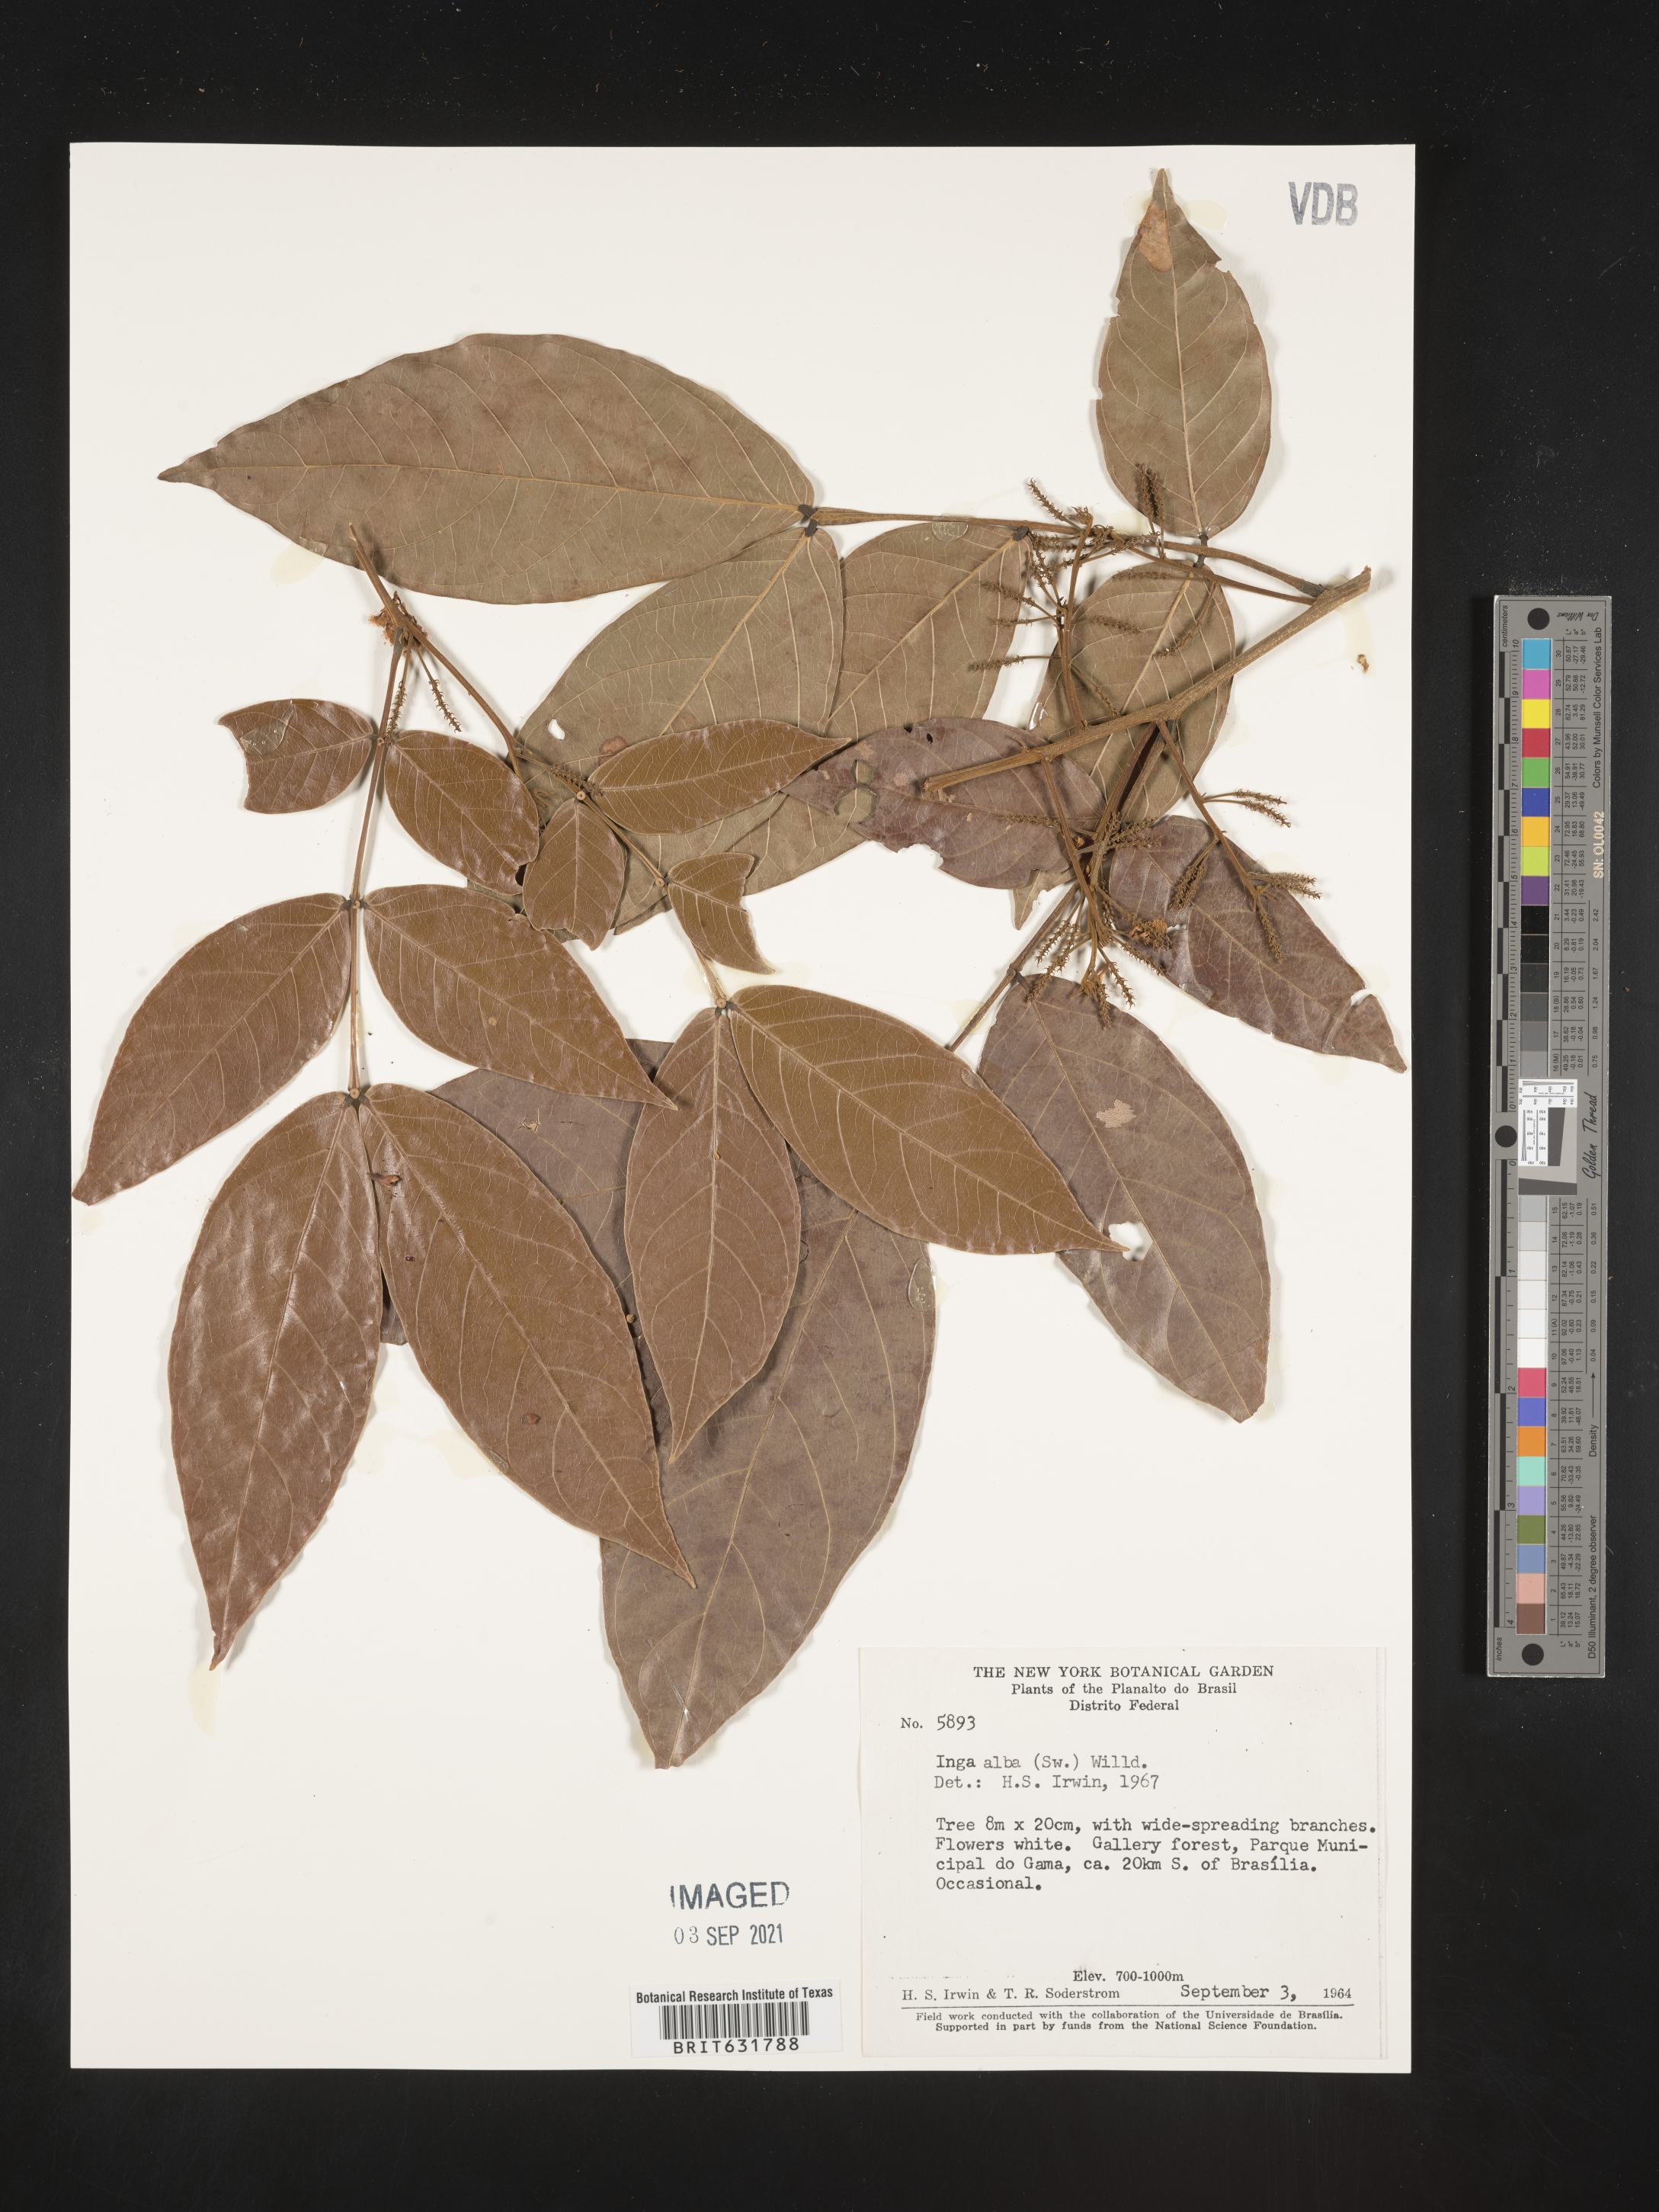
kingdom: Plantae
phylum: Tracheophyta
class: Magnoliopsida
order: Fabales
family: Fabaceae
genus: Inga
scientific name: Inga
